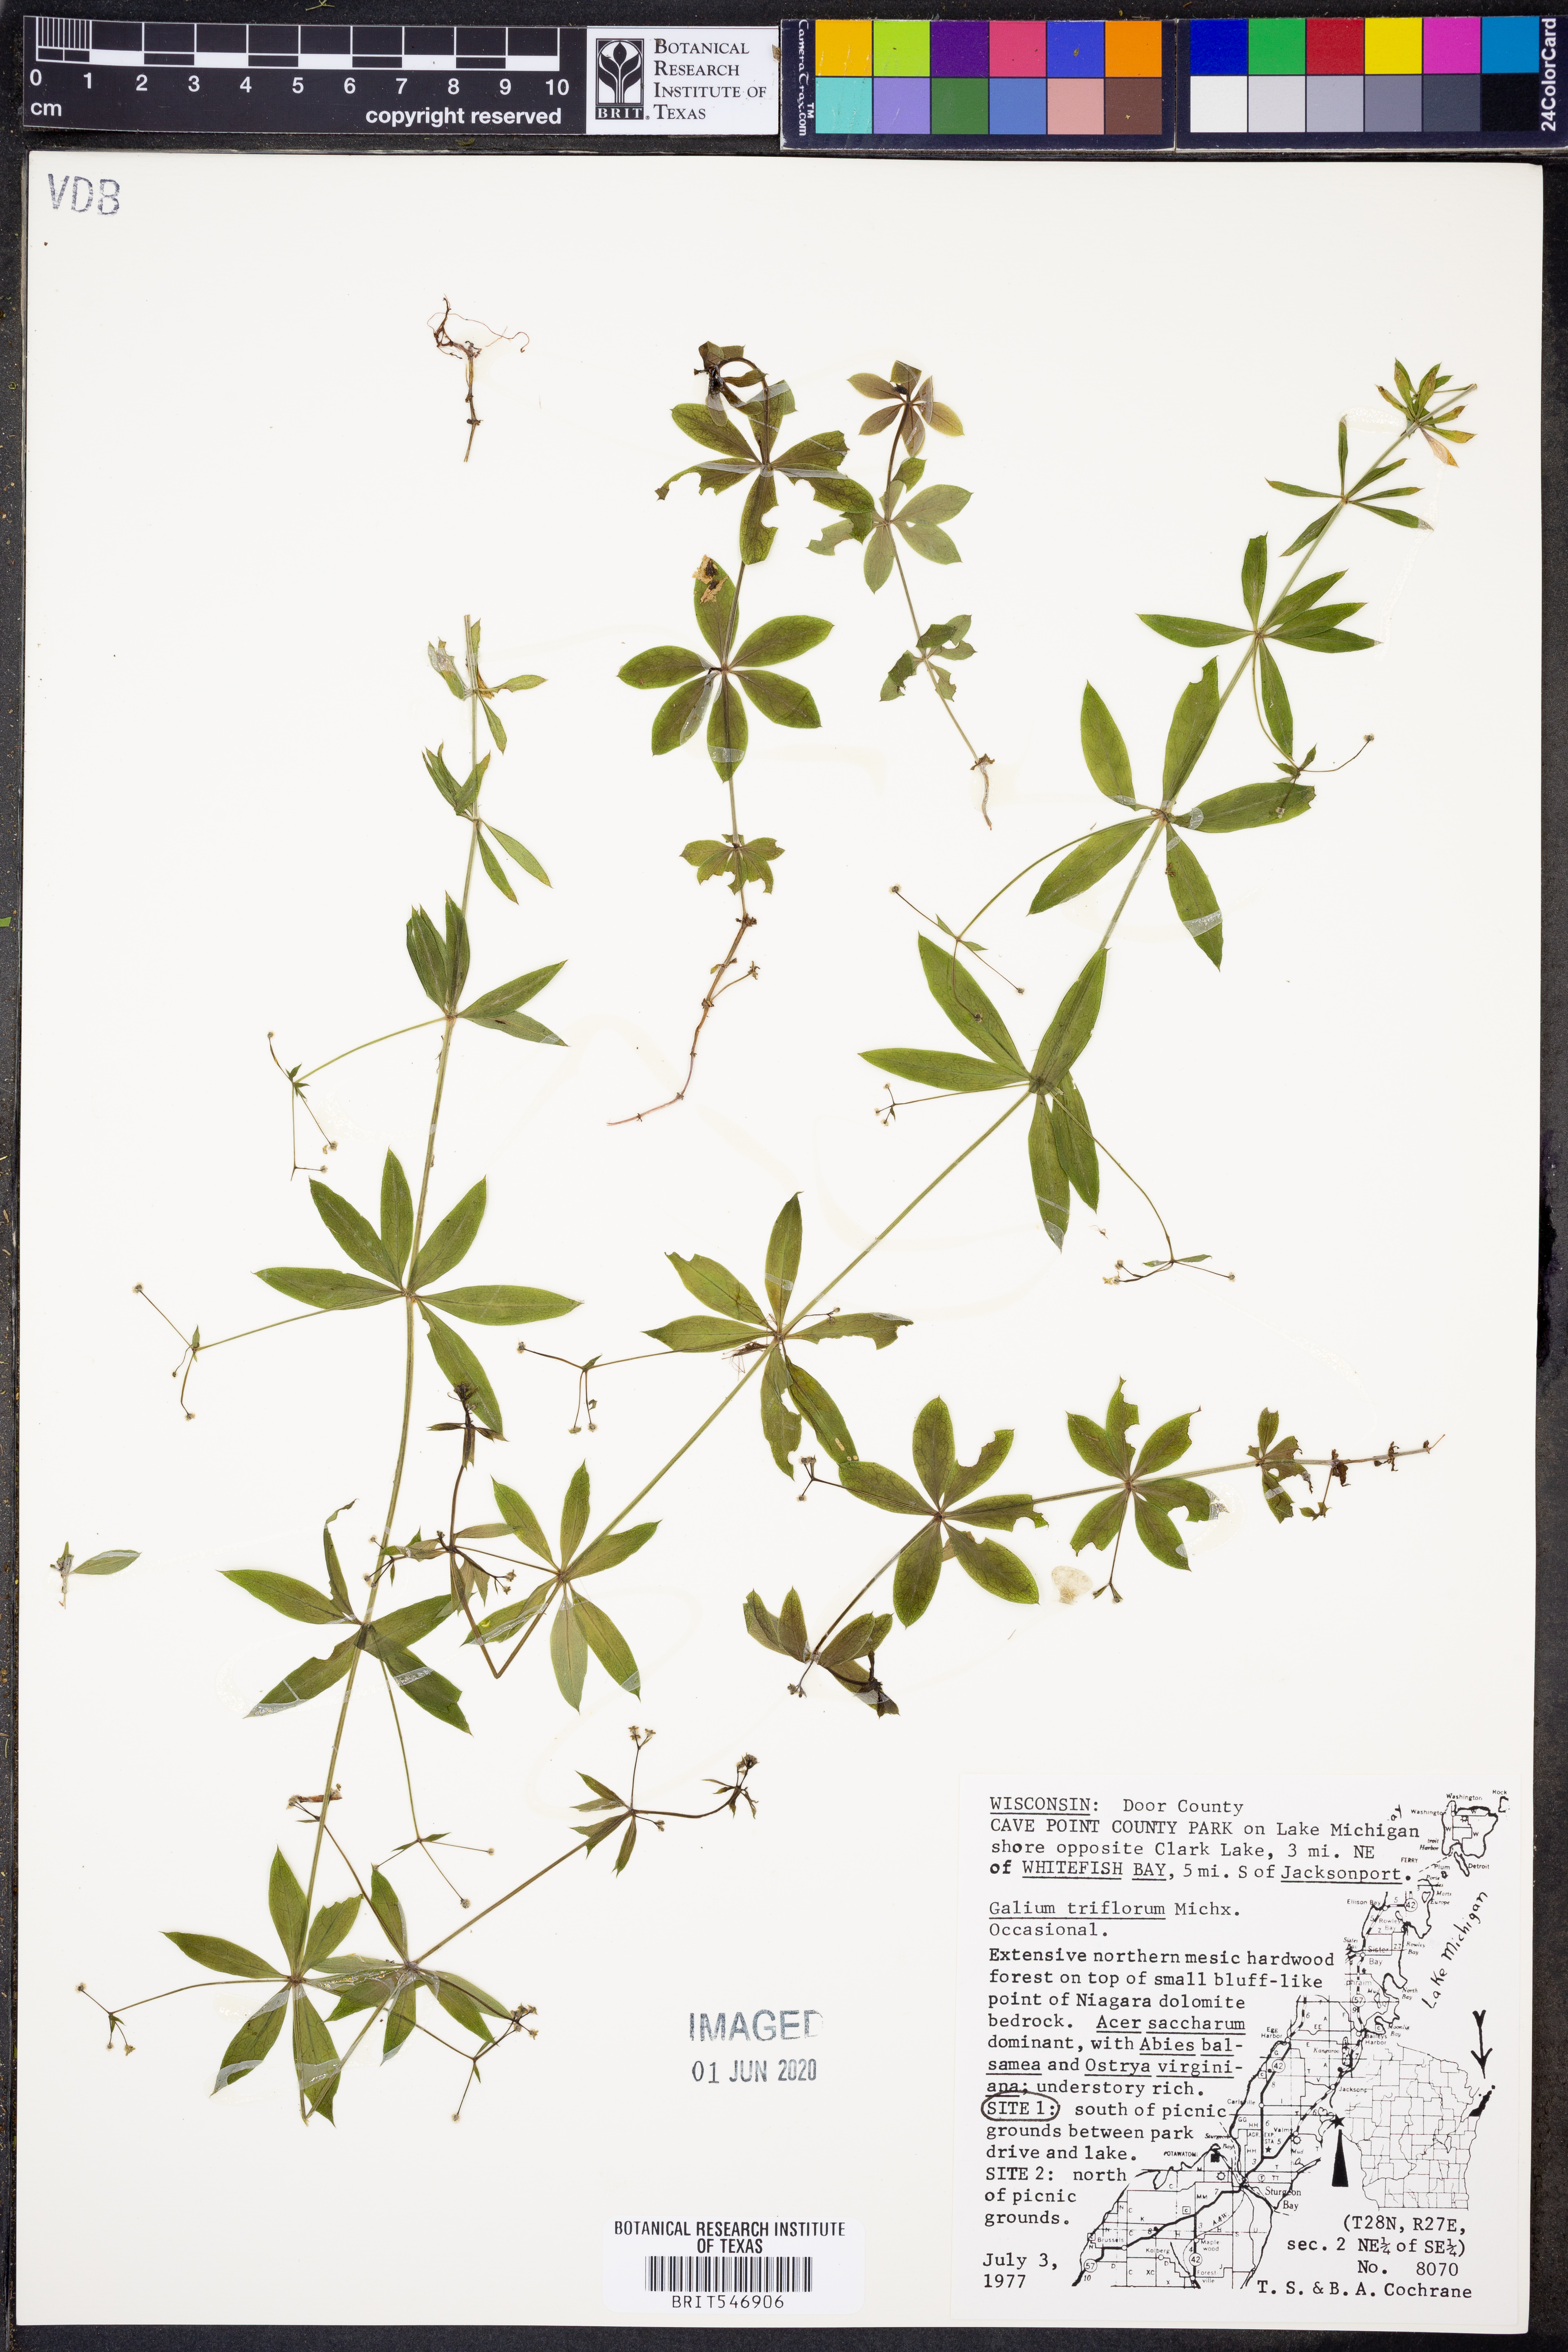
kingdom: Plantae
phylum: Tracheophyta
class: Magnoliopsida
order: Gentianales
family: Rubiaceae
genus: Galium
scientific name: Galium triflorum
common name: Fragrant bedstraw
